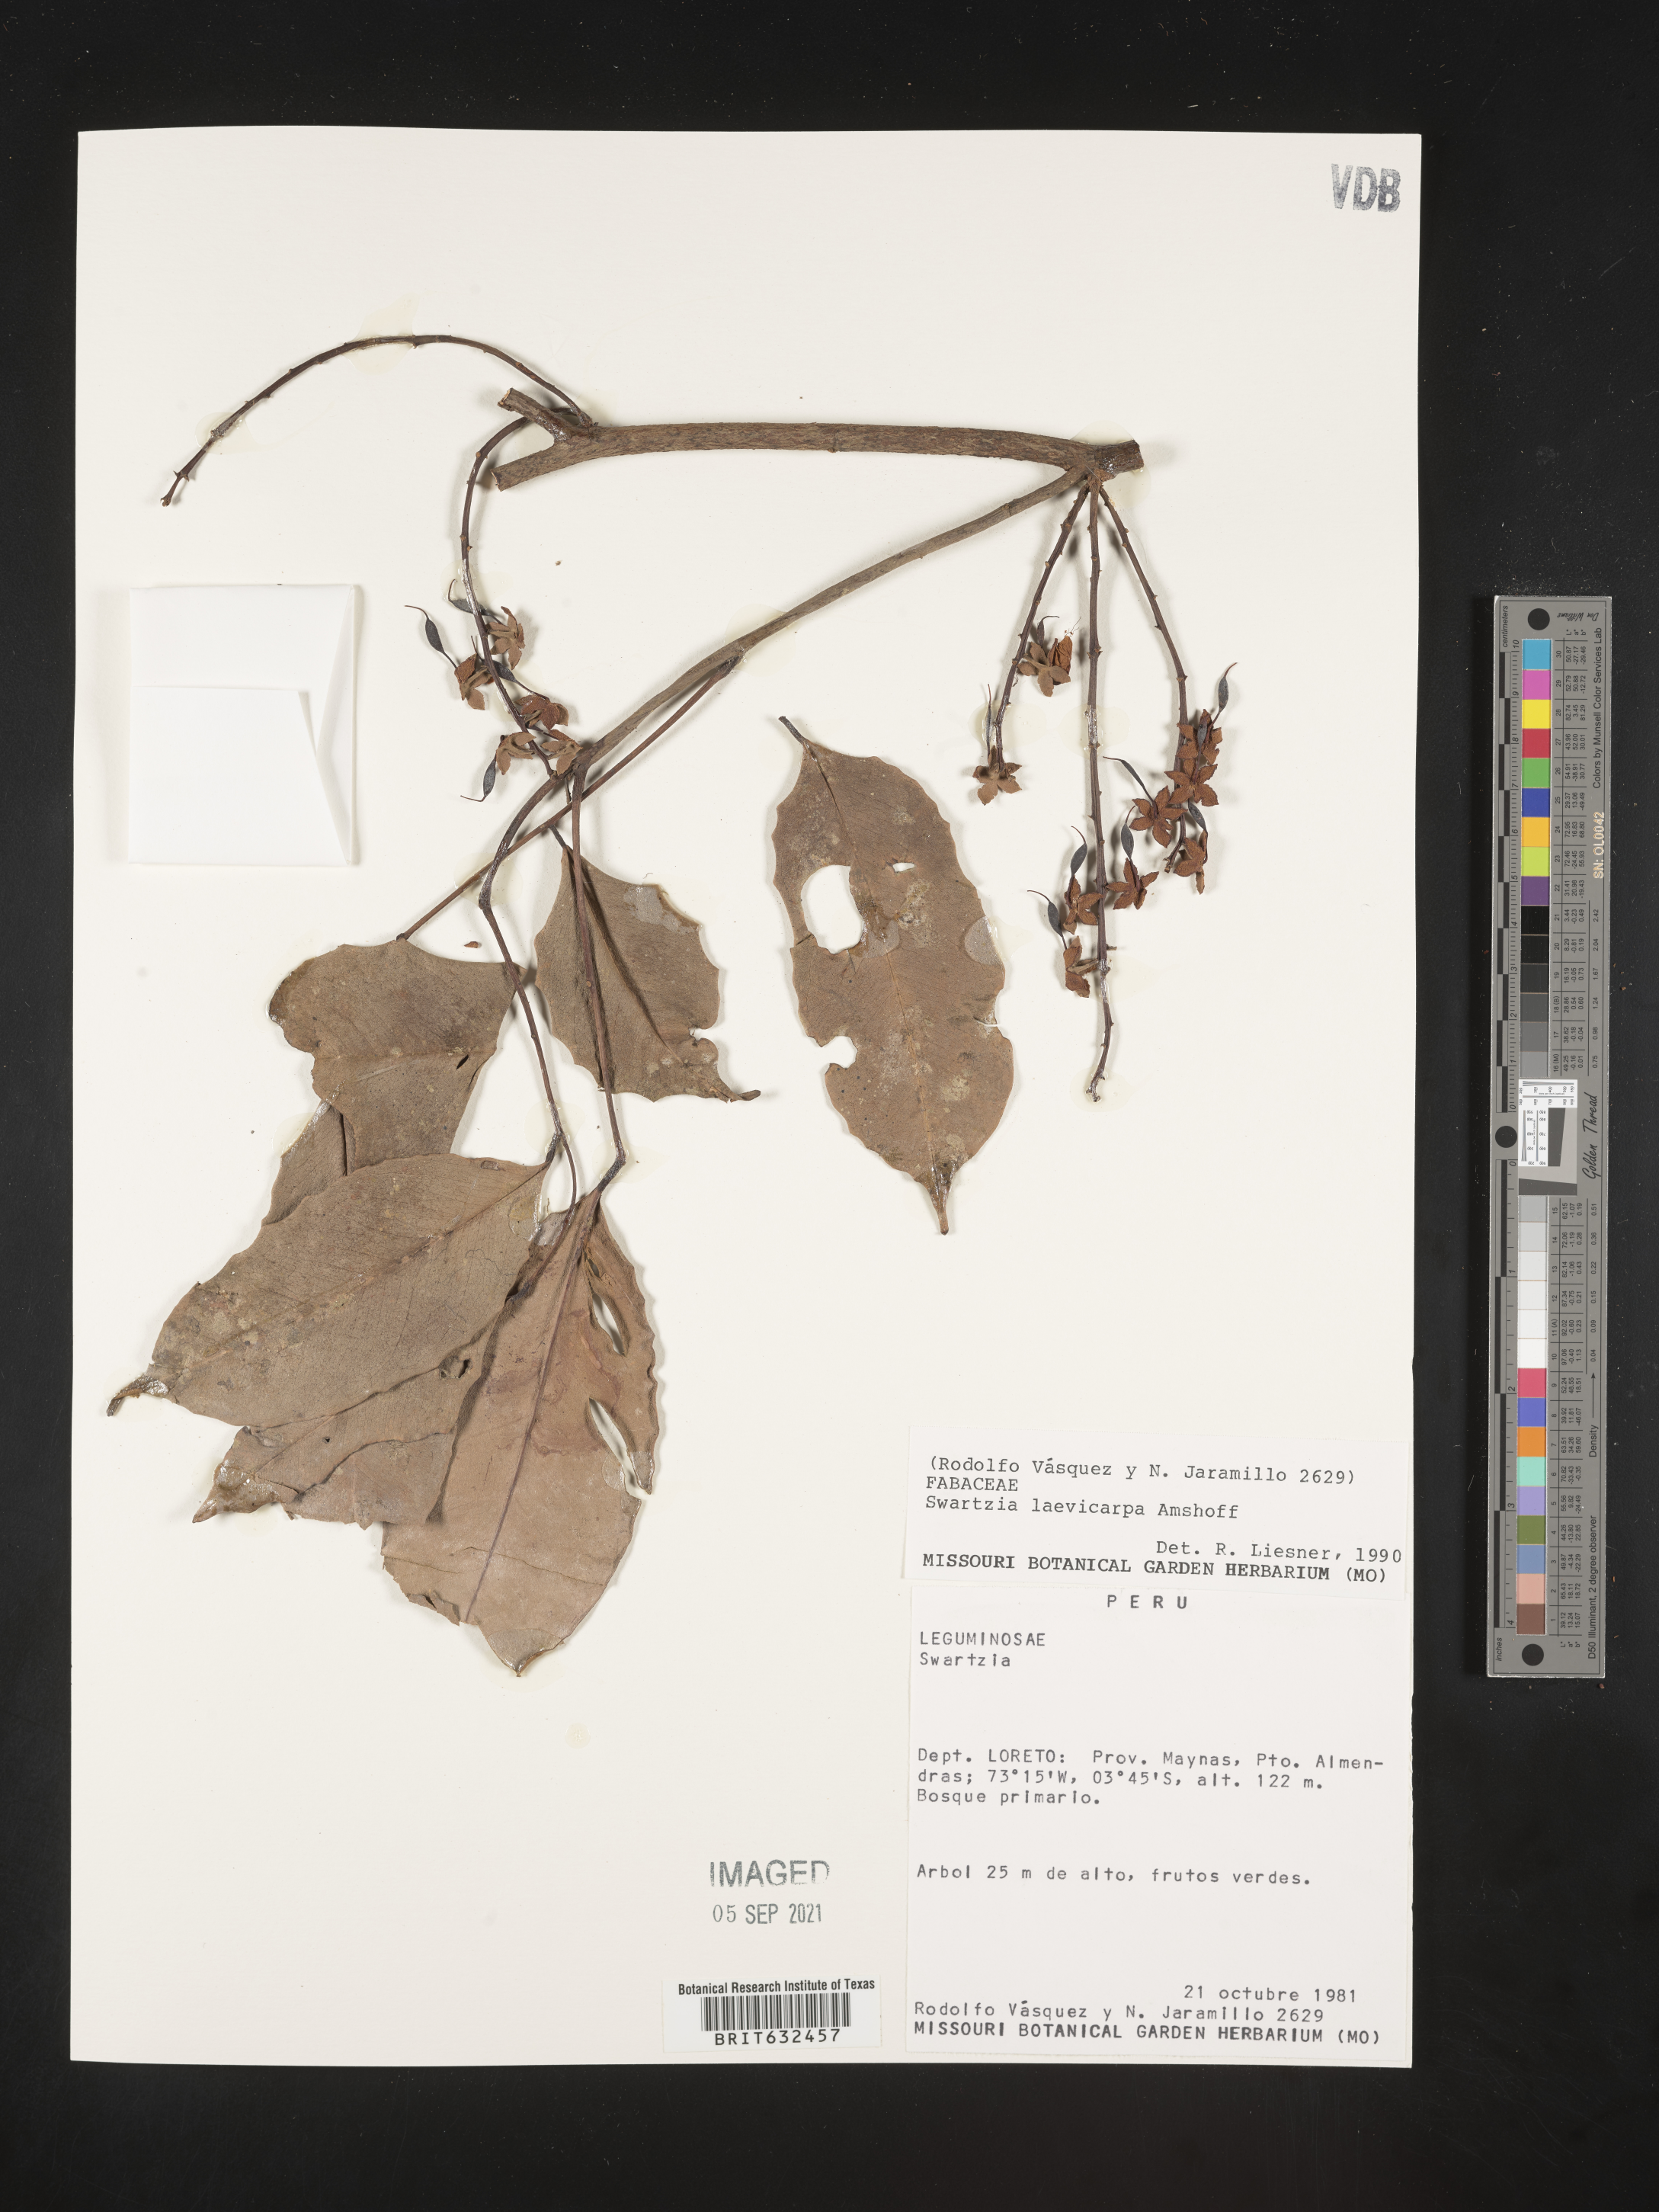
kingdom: Plantae
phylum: Tracheophyta
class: Magnoliopsida
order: Fabales
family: Fabaceae
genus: Swartzia
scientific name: Swartzia
